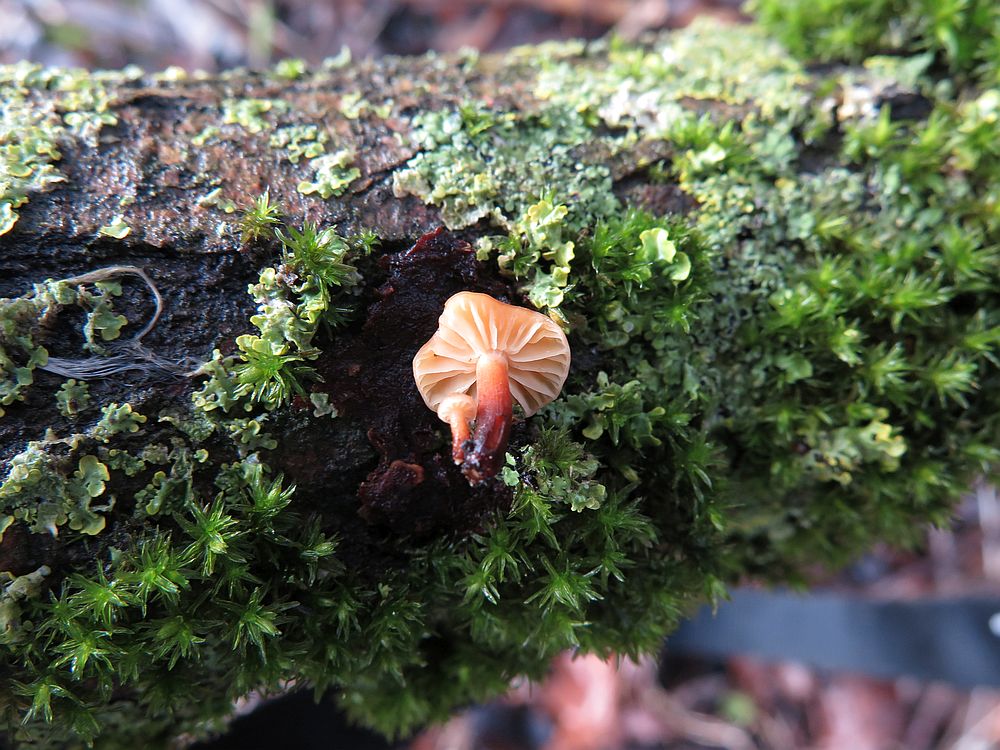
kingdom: Fungi
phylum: Basidiomycota
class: Agaricomycetes
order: Agaricales
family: Physalacriaceae
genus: Flammulina
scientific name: Flammulina elastica
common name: pile-fløjlsfod
